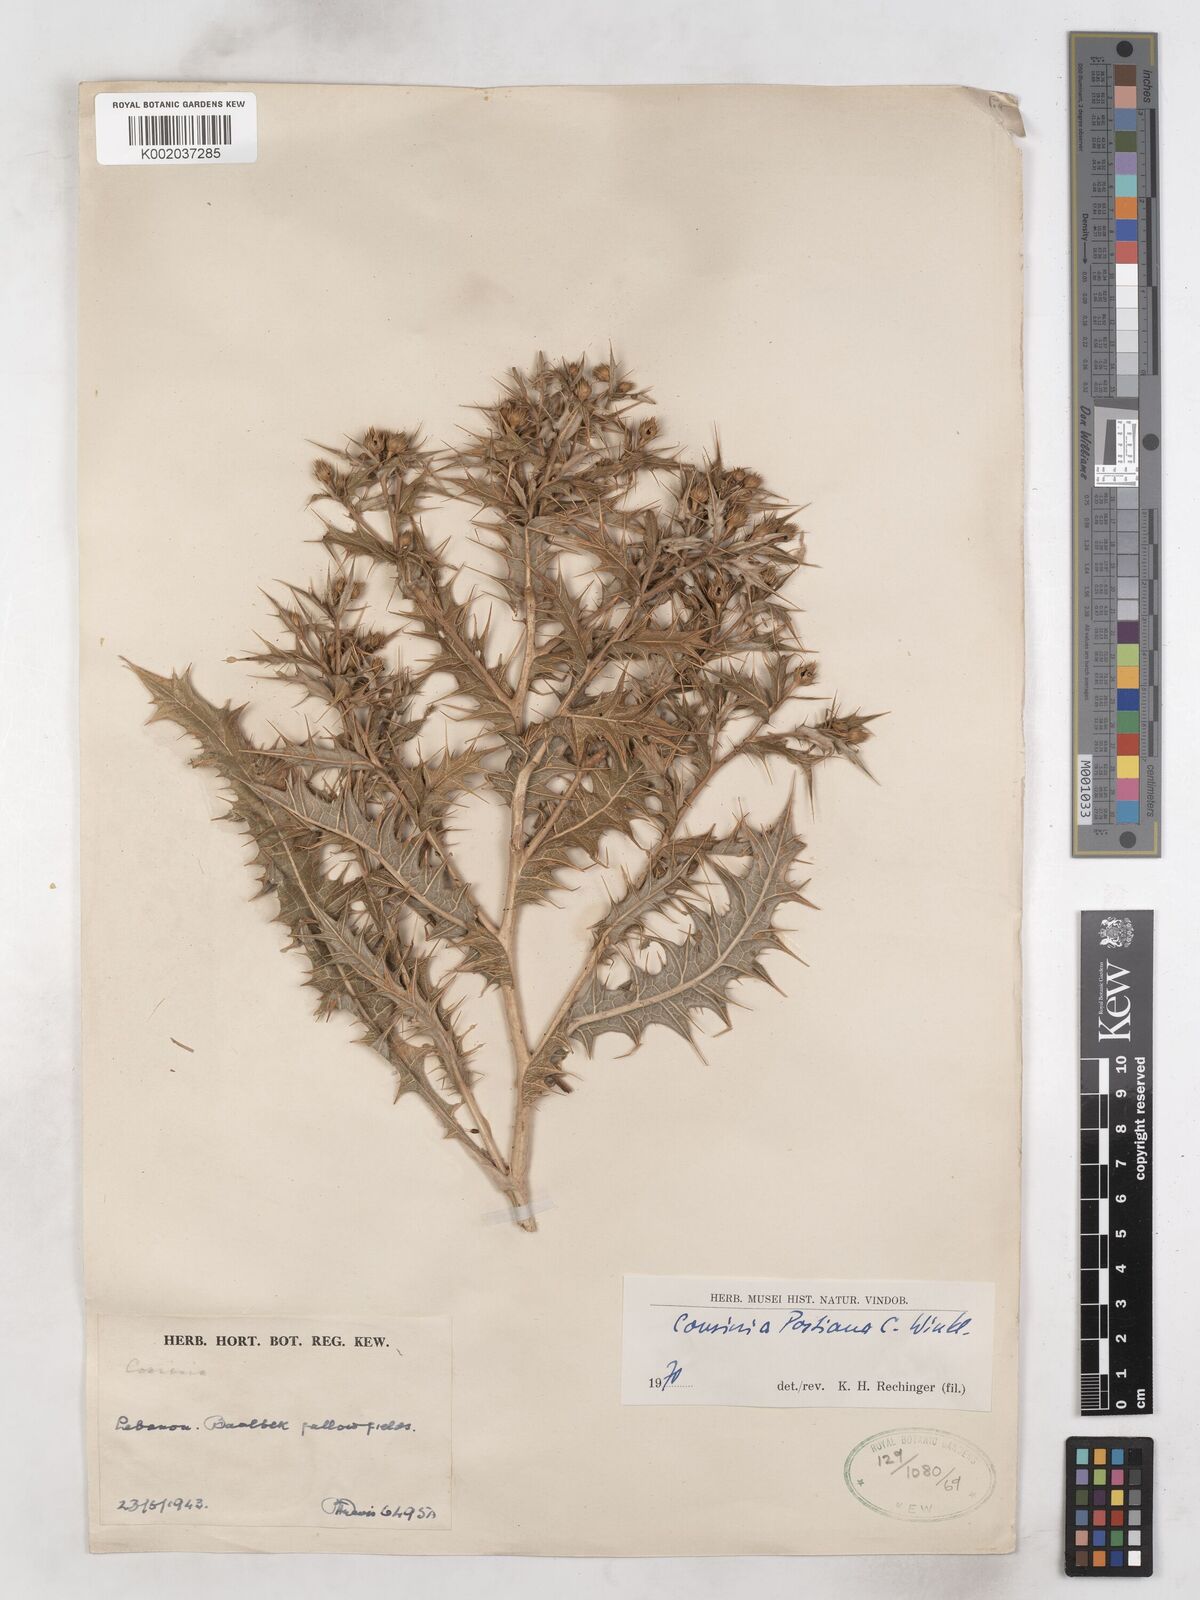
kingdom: Plantae
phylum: Tracheophyta
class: Magnoliopsida
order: Asterales
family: Asteraceae
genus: Cousinia
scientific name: Cousinia postiana
